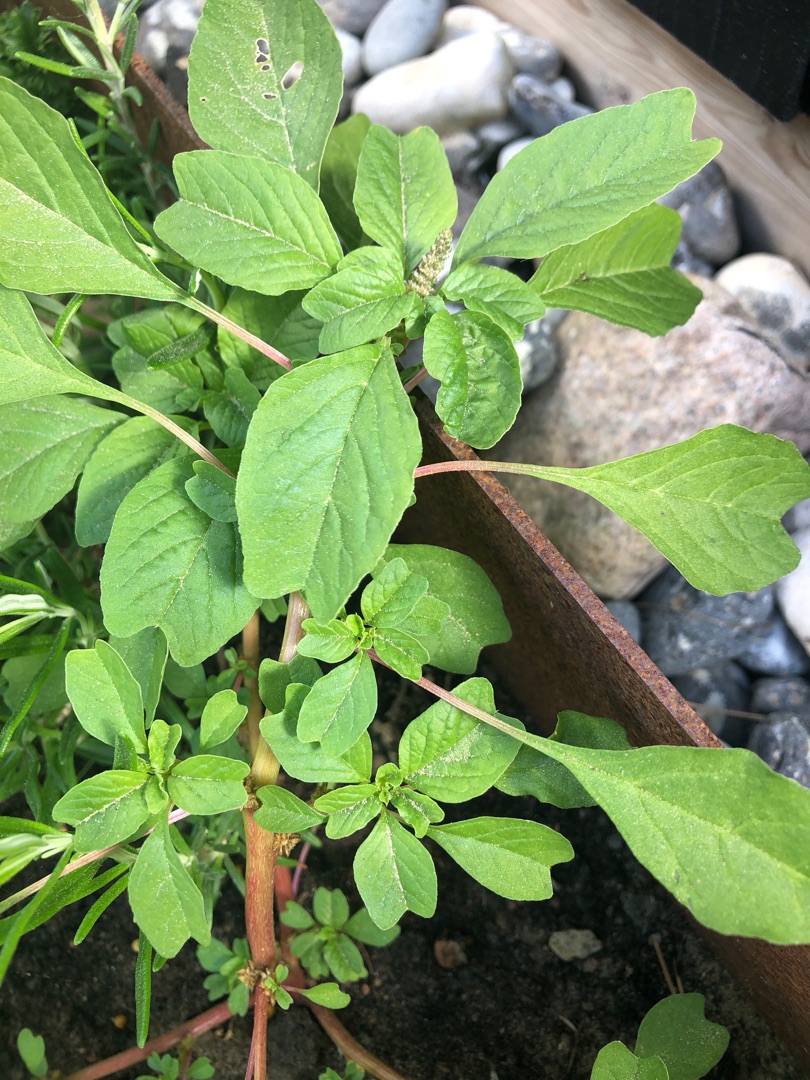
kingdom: Plantae
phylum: Tracheophyta
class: Magnoliopsida
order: Caryophyllales
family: Amaranthaceae
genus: Amaranthus
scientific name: Amaranthus blitum
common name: Plet-amarant
